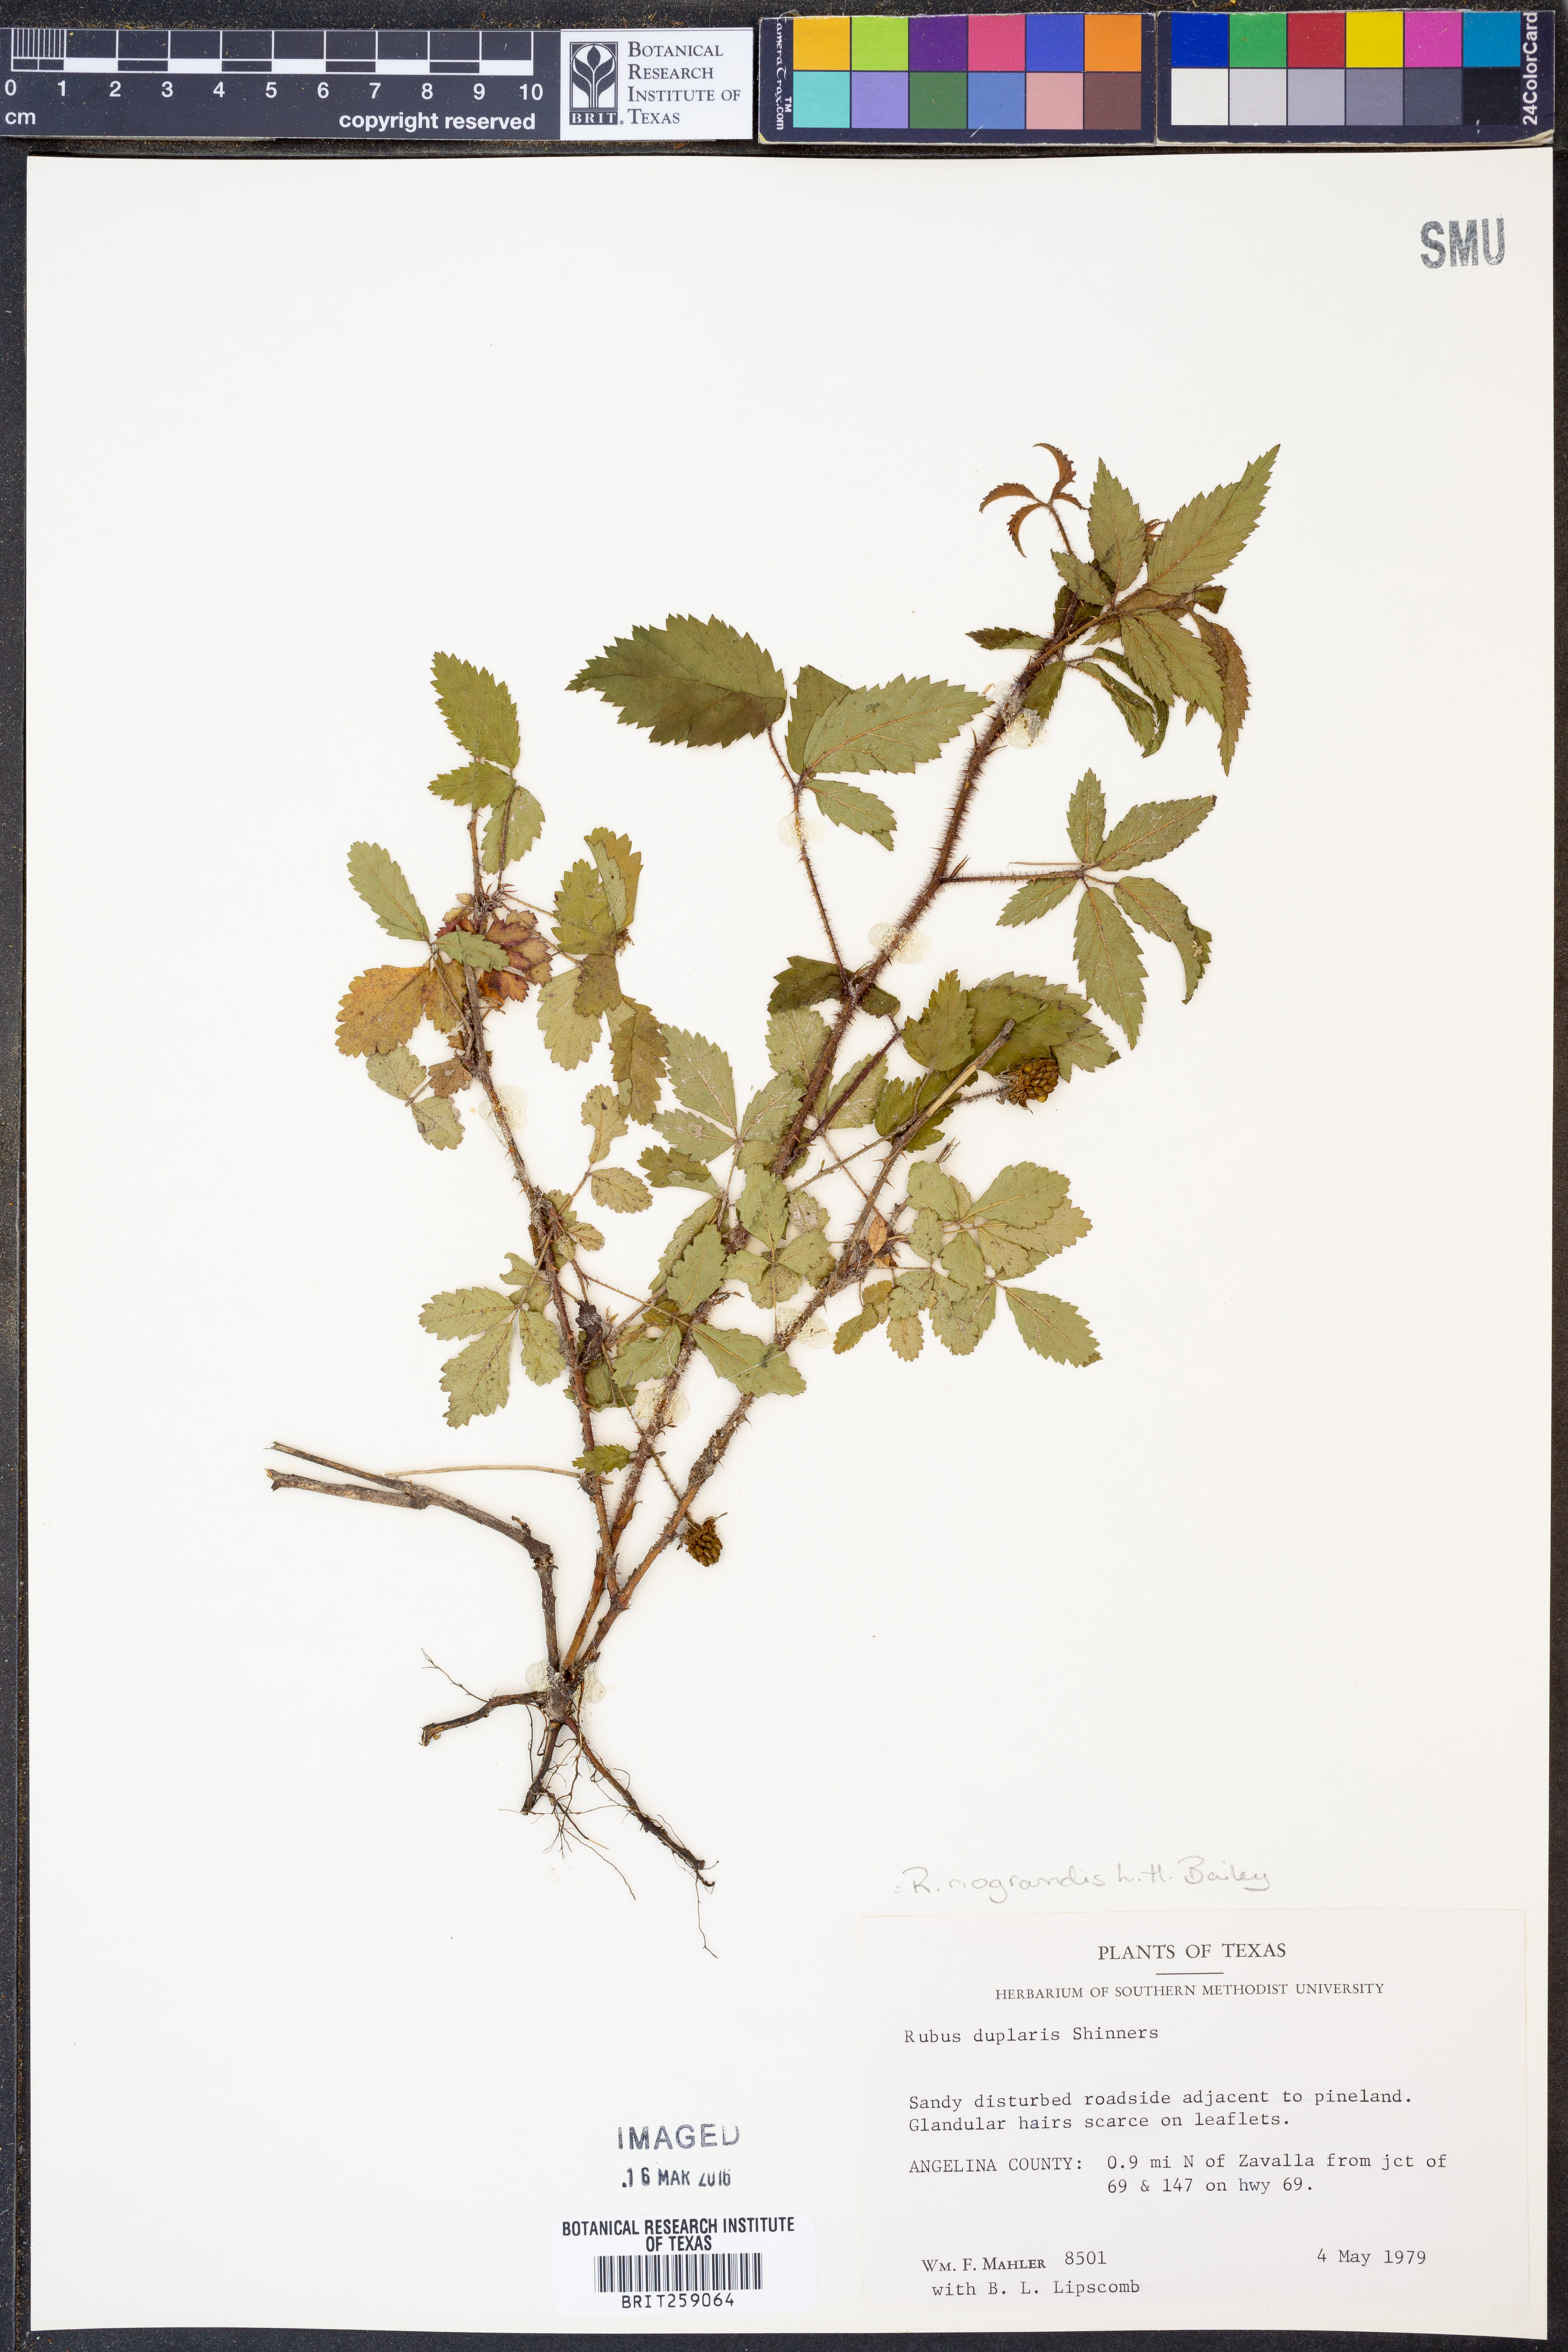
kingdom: Plantae
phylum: Tracheophyta
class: Magnoliopsida
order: Rosales
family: Rosaceae
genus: Rubus
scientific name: Rubus riograndis
